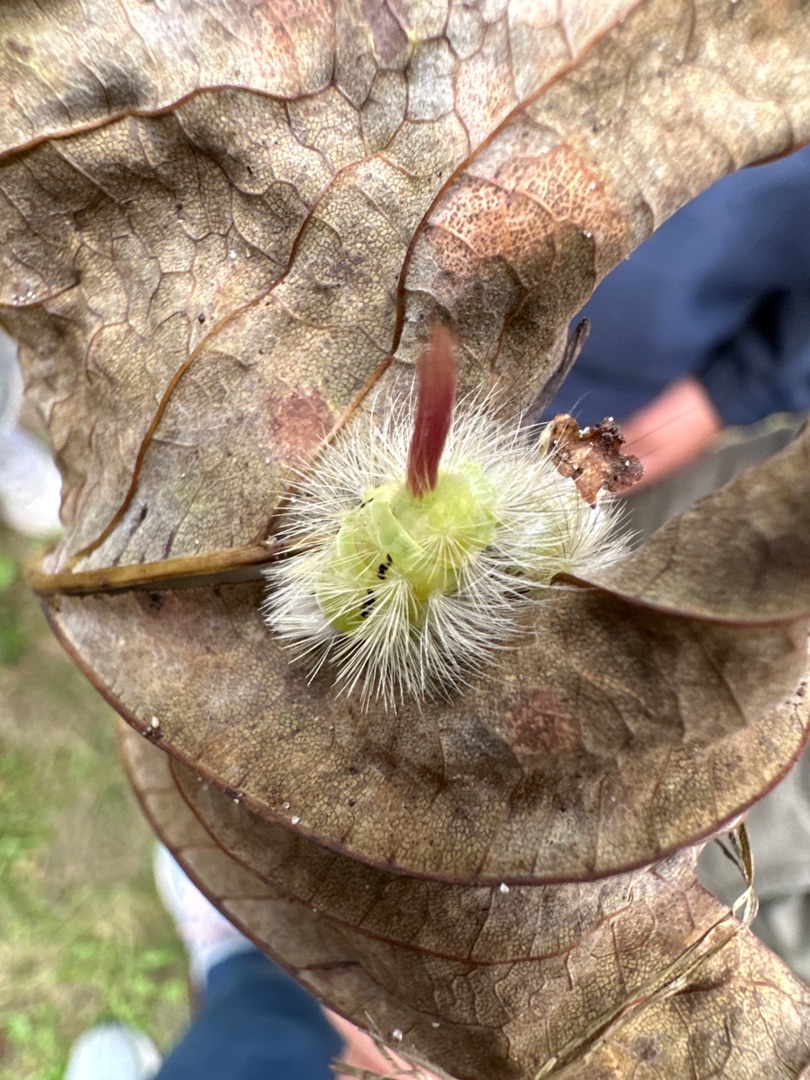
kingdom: Animalia
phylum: Arthropoda
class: Insecta
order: Lepidoptera
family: Erebidae
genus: Calliteara
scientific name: Calliteara pudibunda
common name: Bøgenonne
